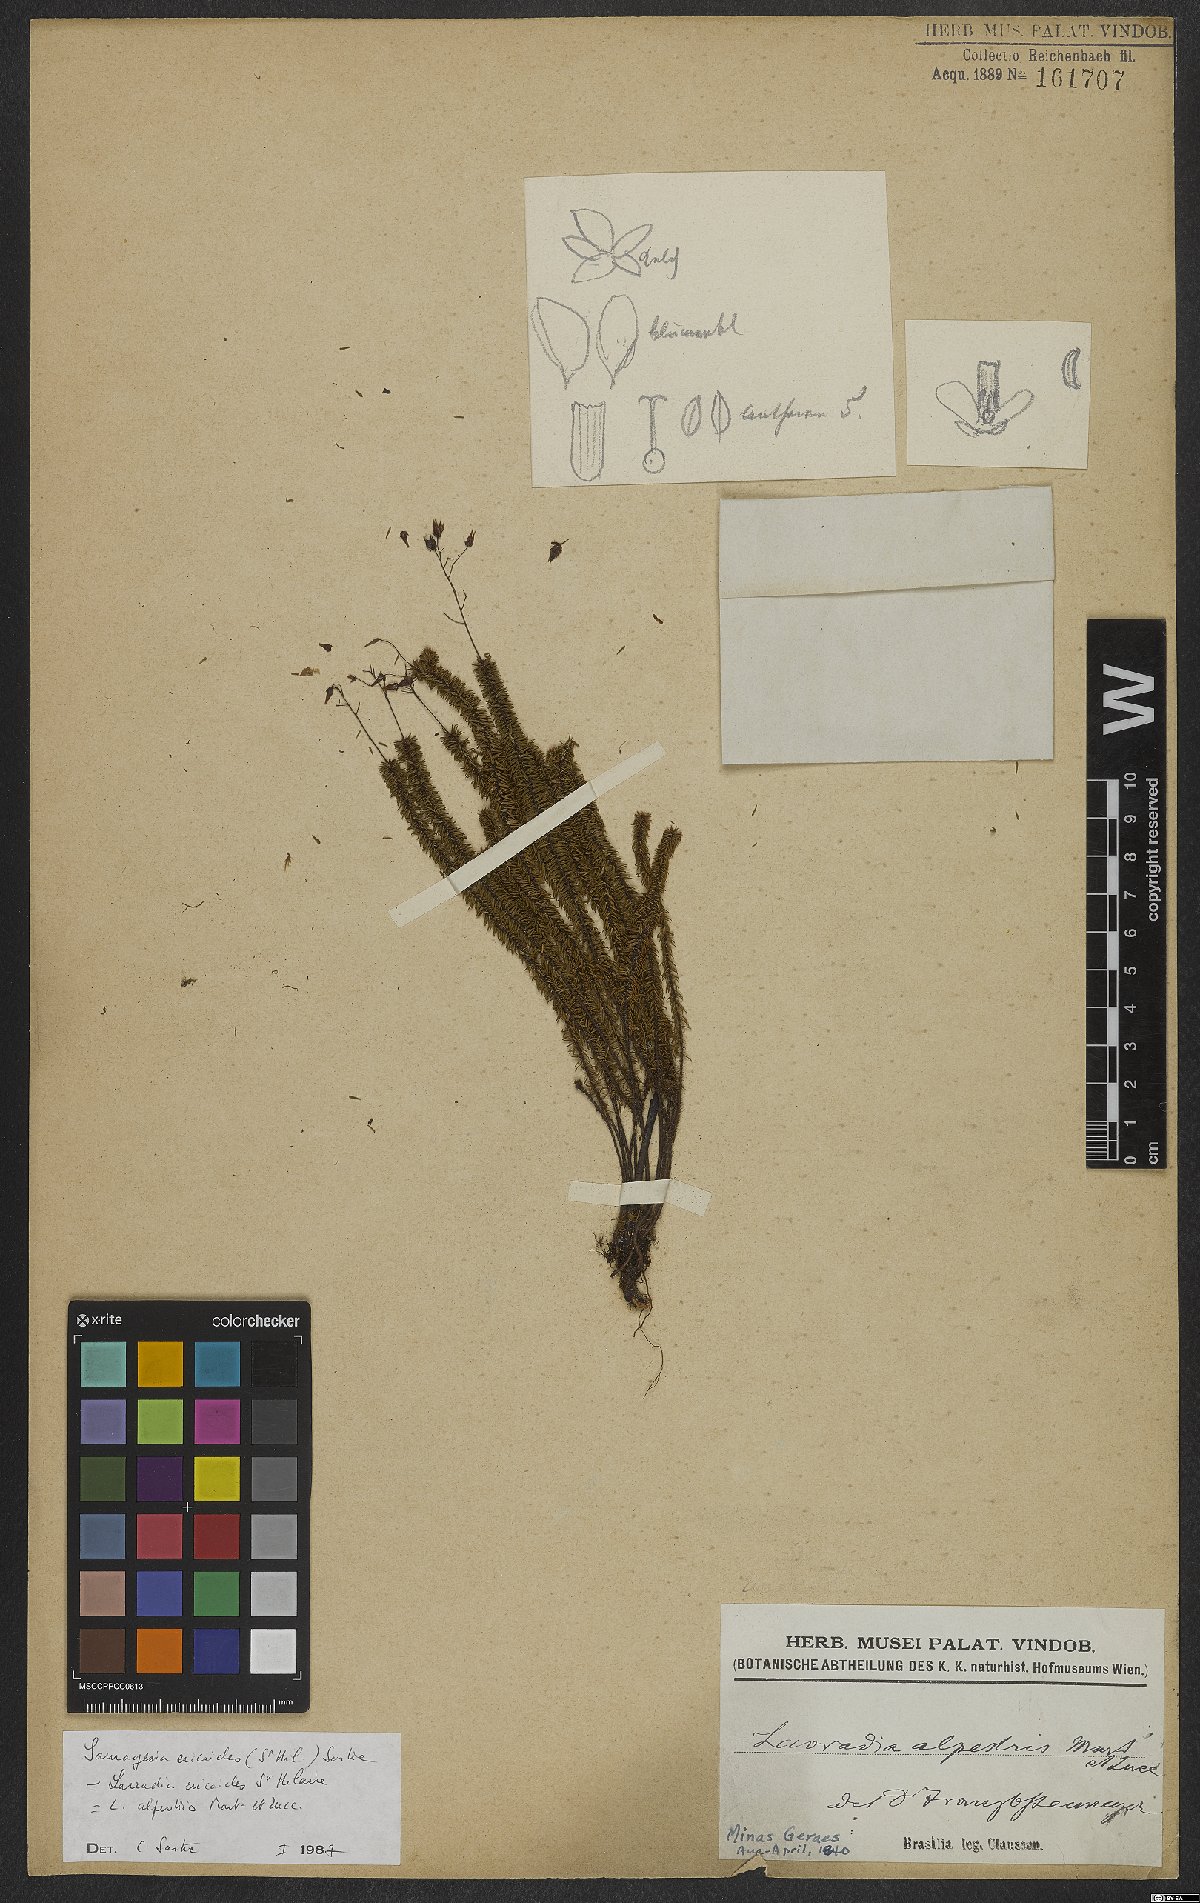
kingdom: Plantae
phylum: Tracheophyta
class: Magnoliopsida
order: Malpighiales
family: Ochnaceae
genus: Sauvagesia
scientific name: Sauvagesia ericoides
